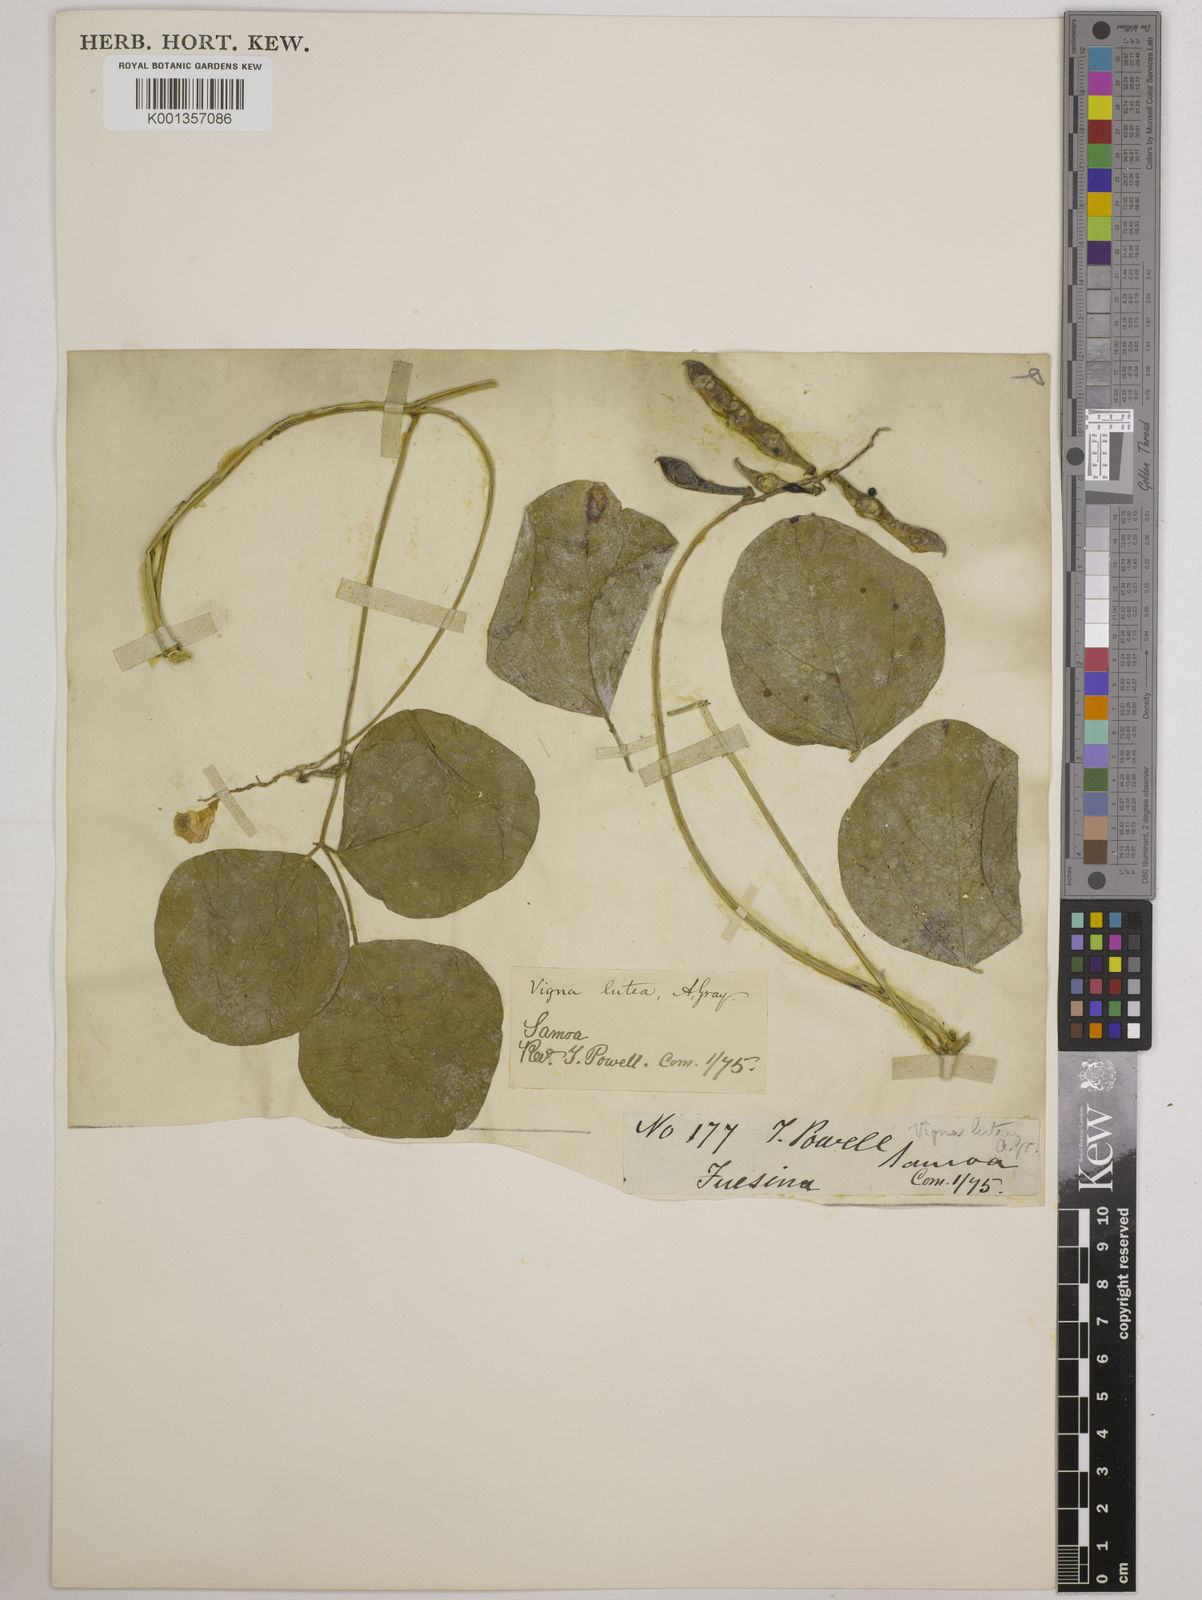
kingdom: Plantae
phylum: Tracheophyta
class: Magnoliopsida
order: Fabales
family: Fabaceae
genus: Vigna
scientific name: Vigna marina
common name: Dune-bean
